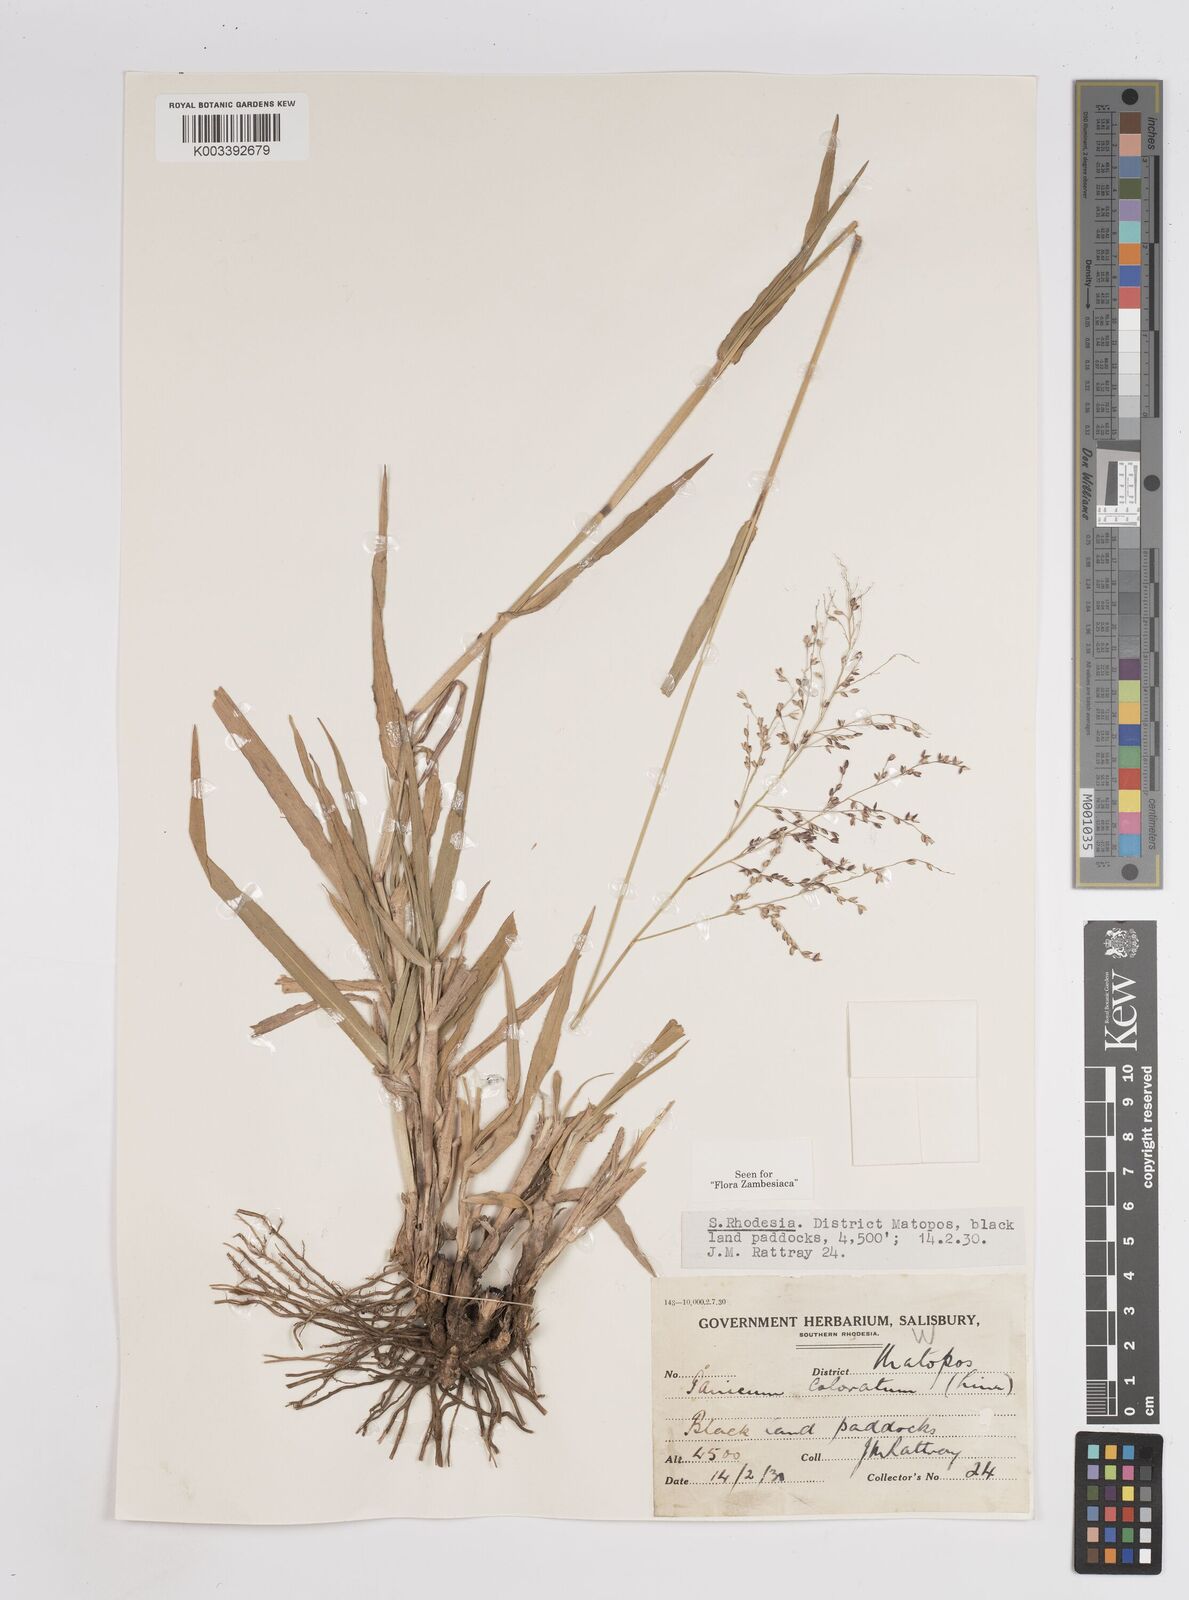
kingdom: Plantae
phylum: Tracheophyta
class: Liliopsida
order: Poales
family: Poaceae
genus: Panicum
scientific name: Panicum
